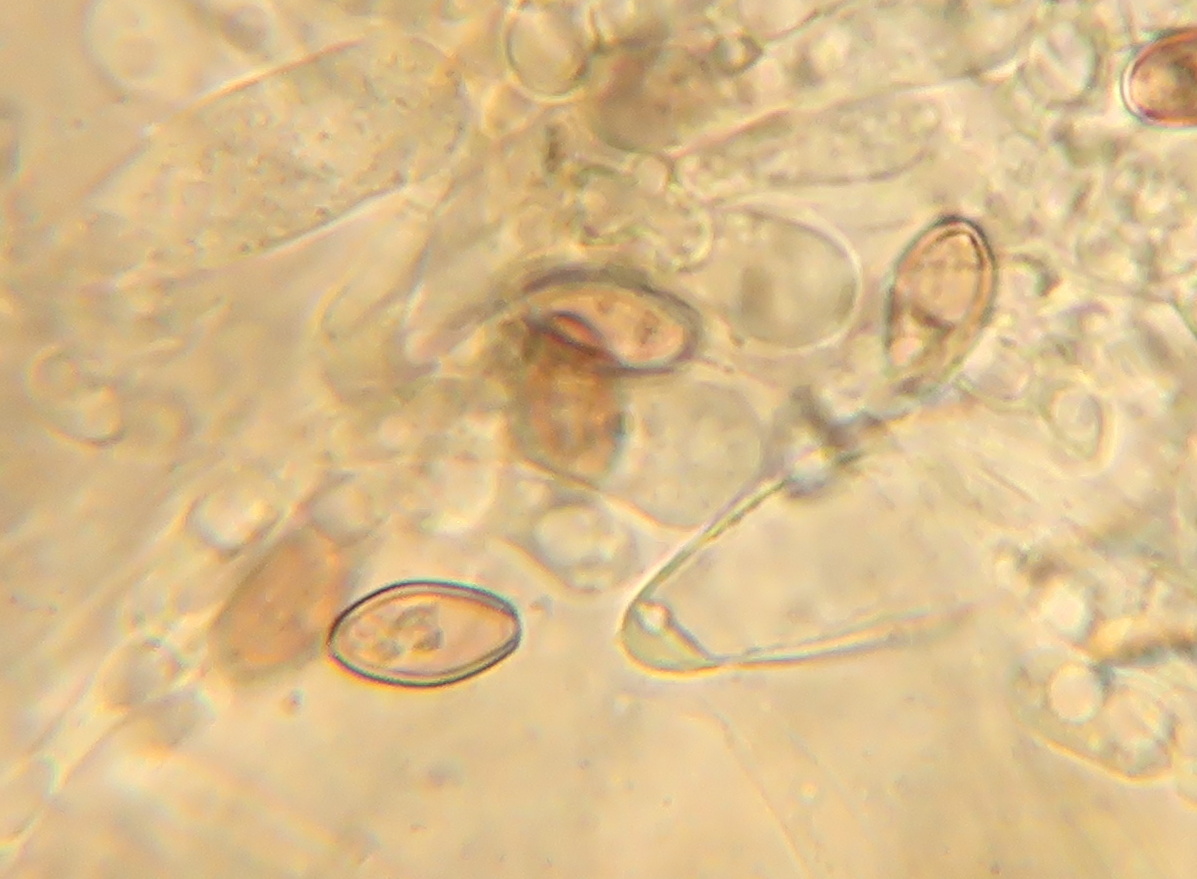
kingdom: Fungi
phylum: Basidiomycota
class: Agaricomycetes
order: Agaricales
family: Strophariaceae
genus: Leratiomyces
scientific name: Leratiomyces ceres
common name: orange bredblad
